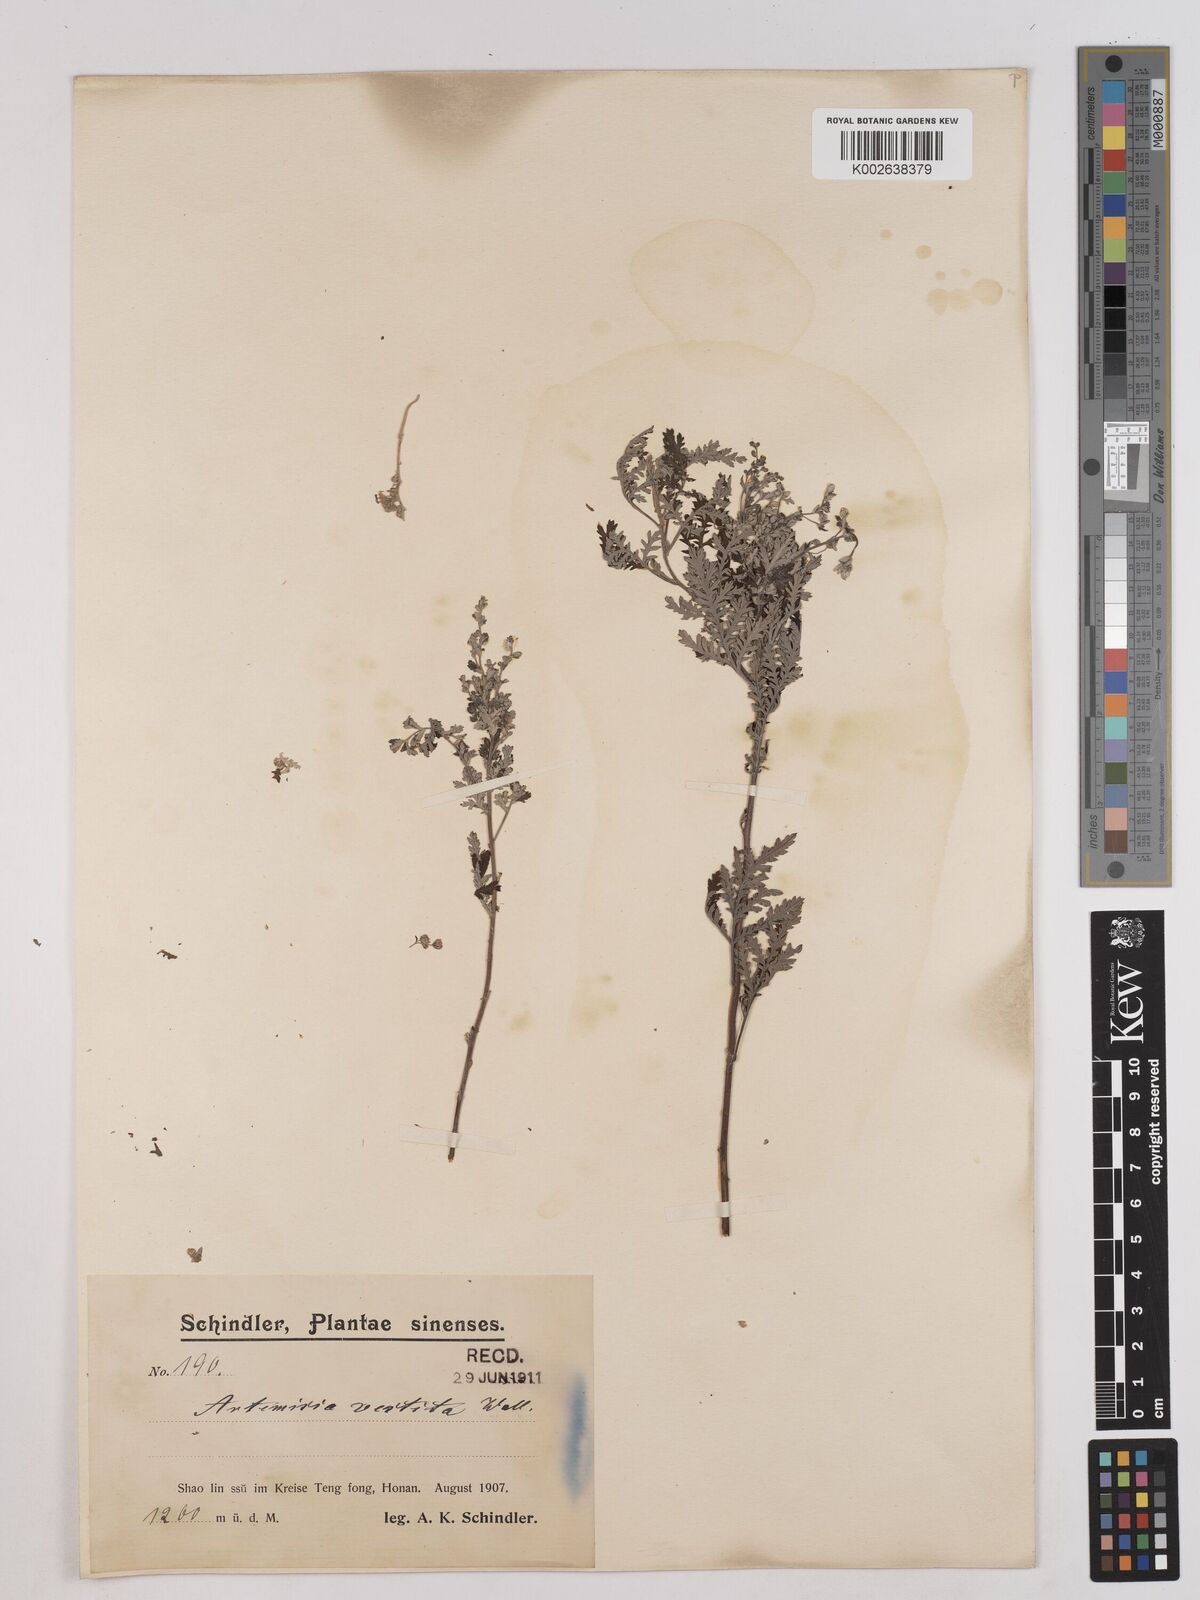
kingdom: Plantae
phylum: Tracheophyta
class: Magnoliopsida
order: Asterales
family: Asteraceae
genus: Artemisia
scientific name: Artemisia gmelinii
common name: Gmelin's wormwood
